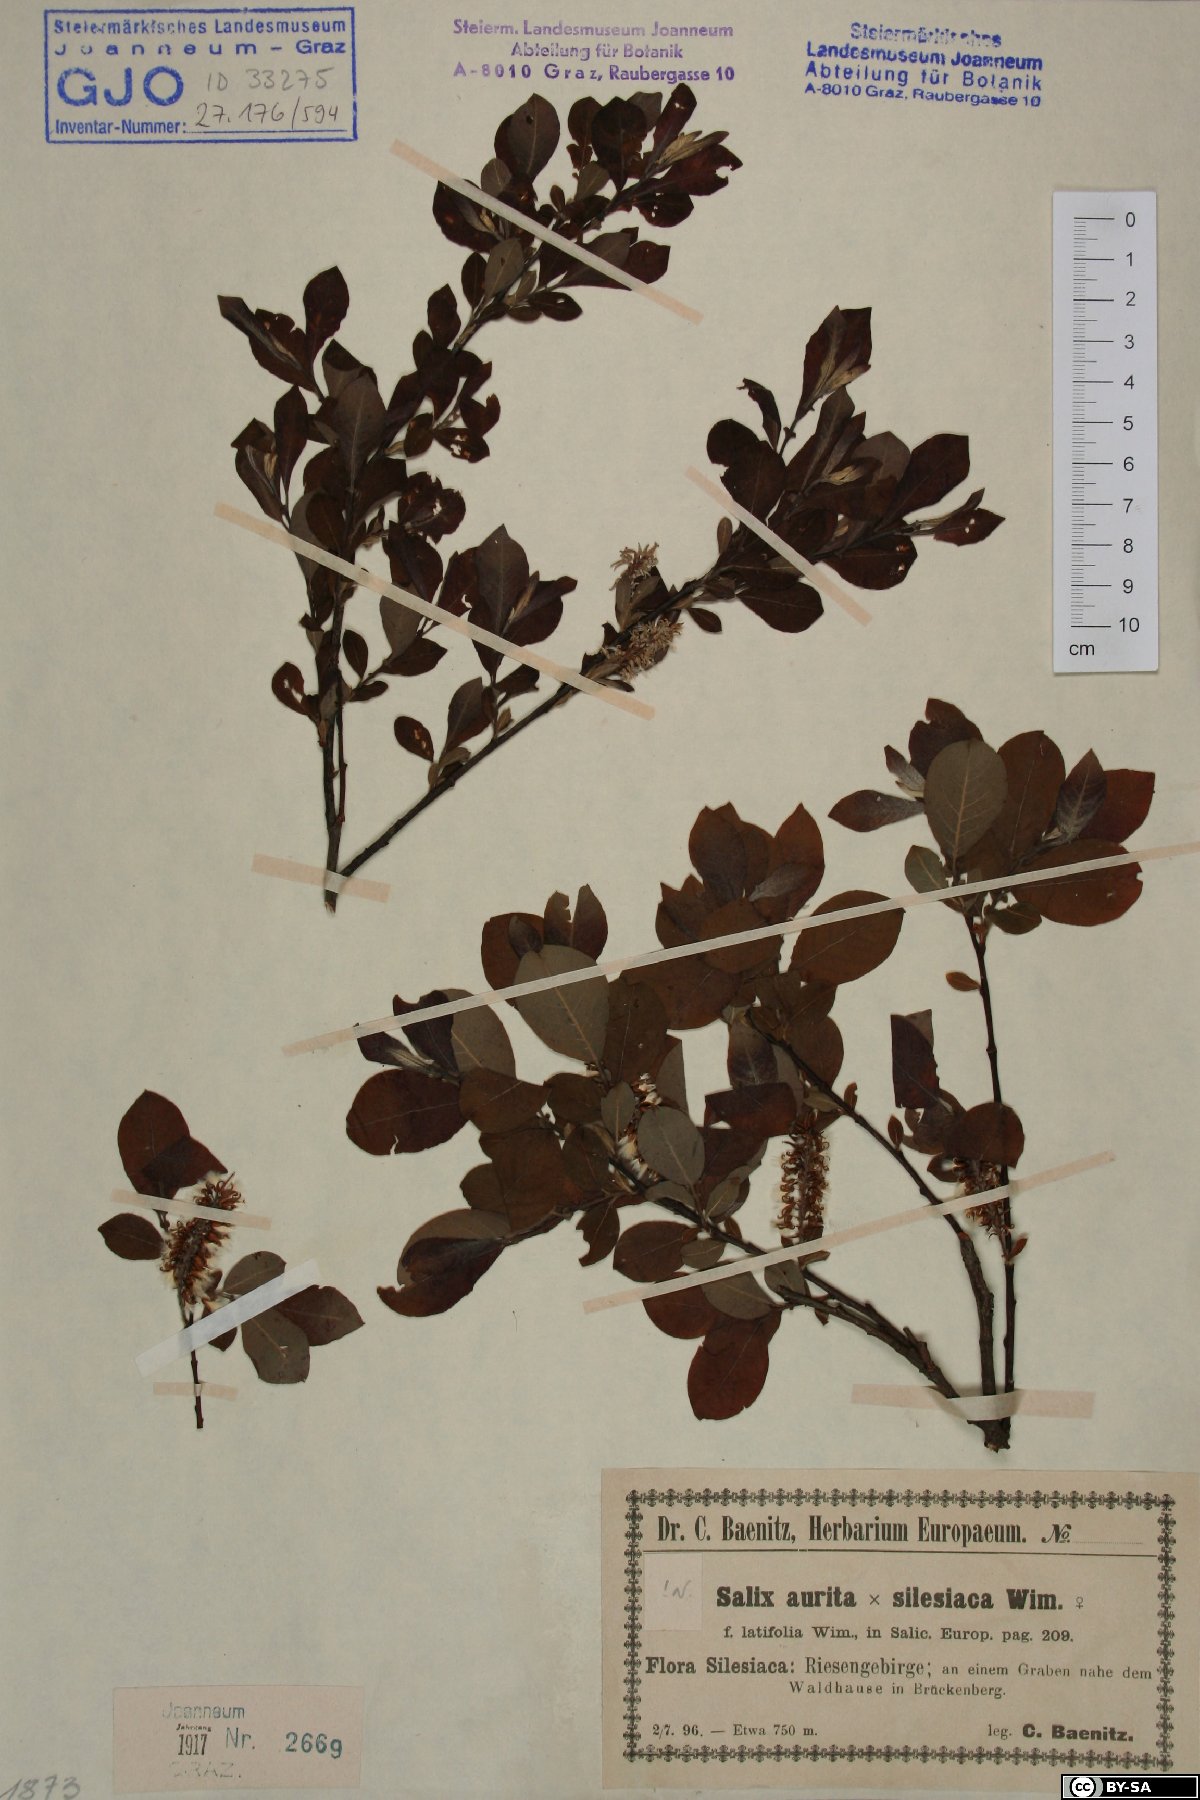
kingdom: Plantae
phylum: Tracheophyta
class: Magnoliopsida
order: Malpighiales
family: Salicaceae
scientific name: Salicaceae
